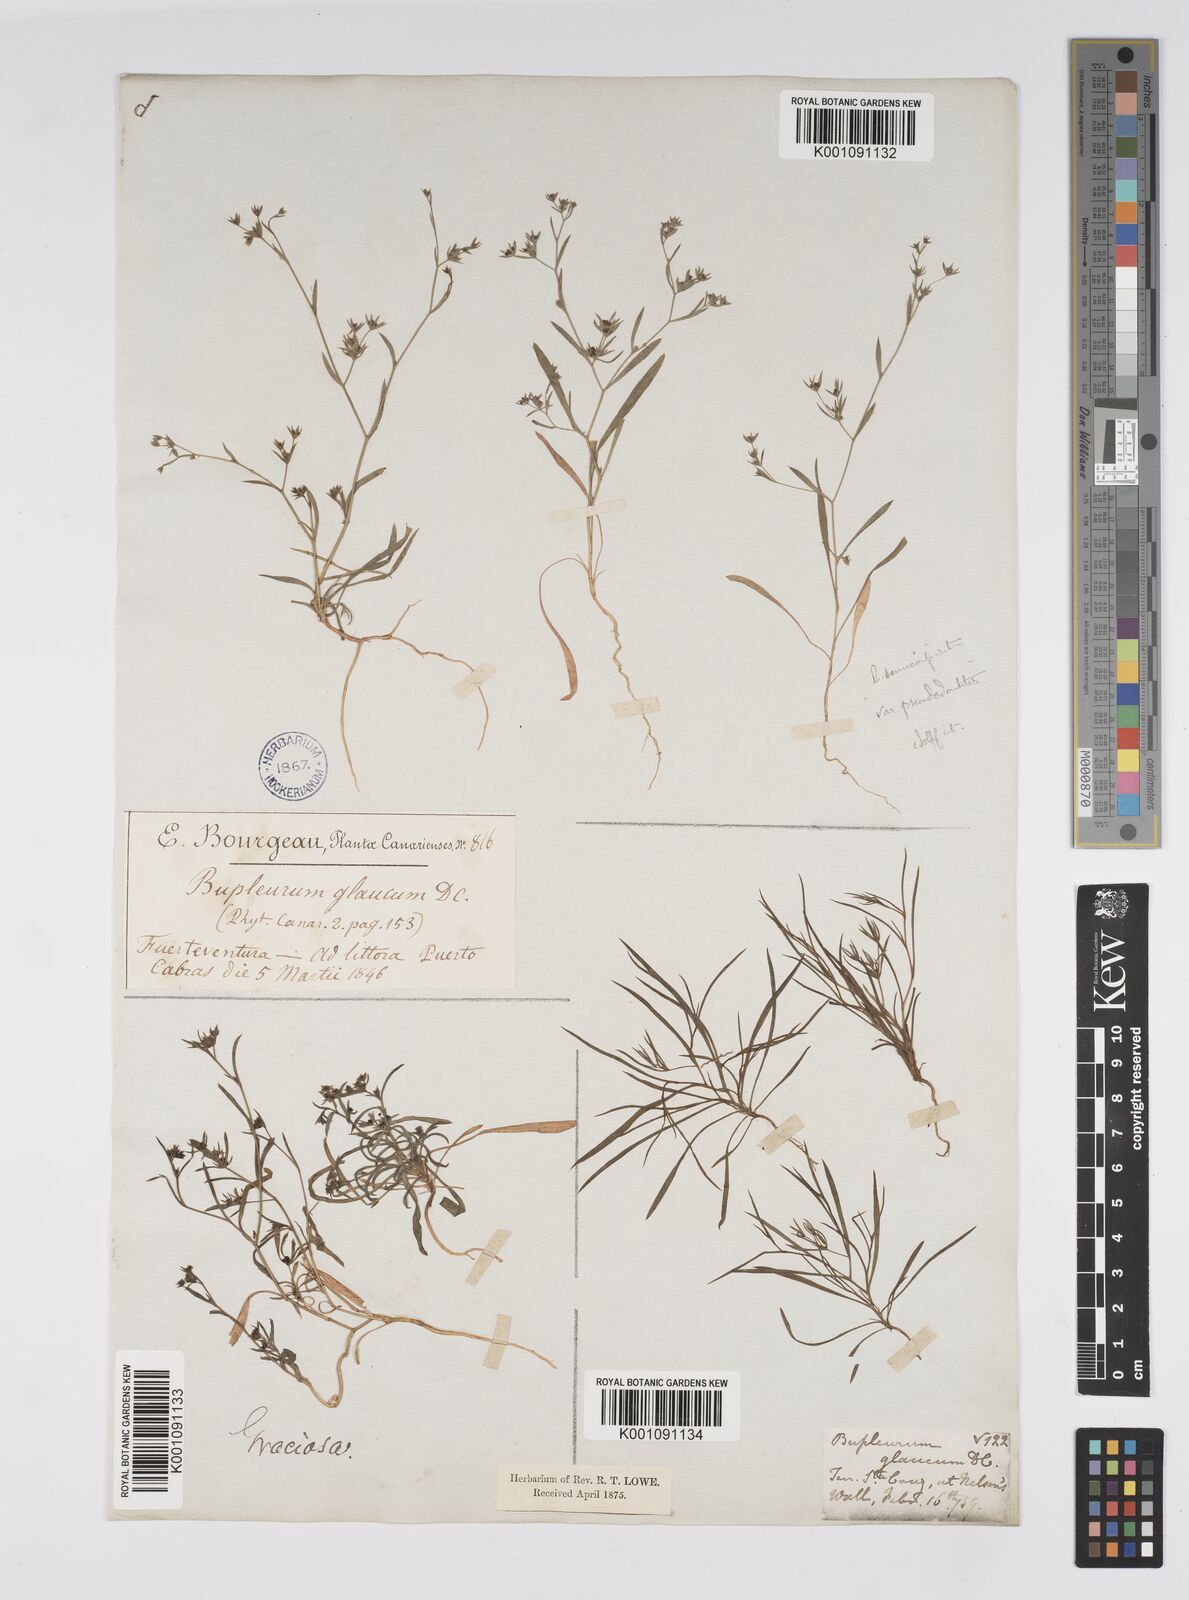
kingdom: Plantae
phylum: Tracheophyta
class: Magnoliopsida
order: Apiales
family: Apiaceae
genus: Bupleurum
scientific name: Bupleurum semicompositum
